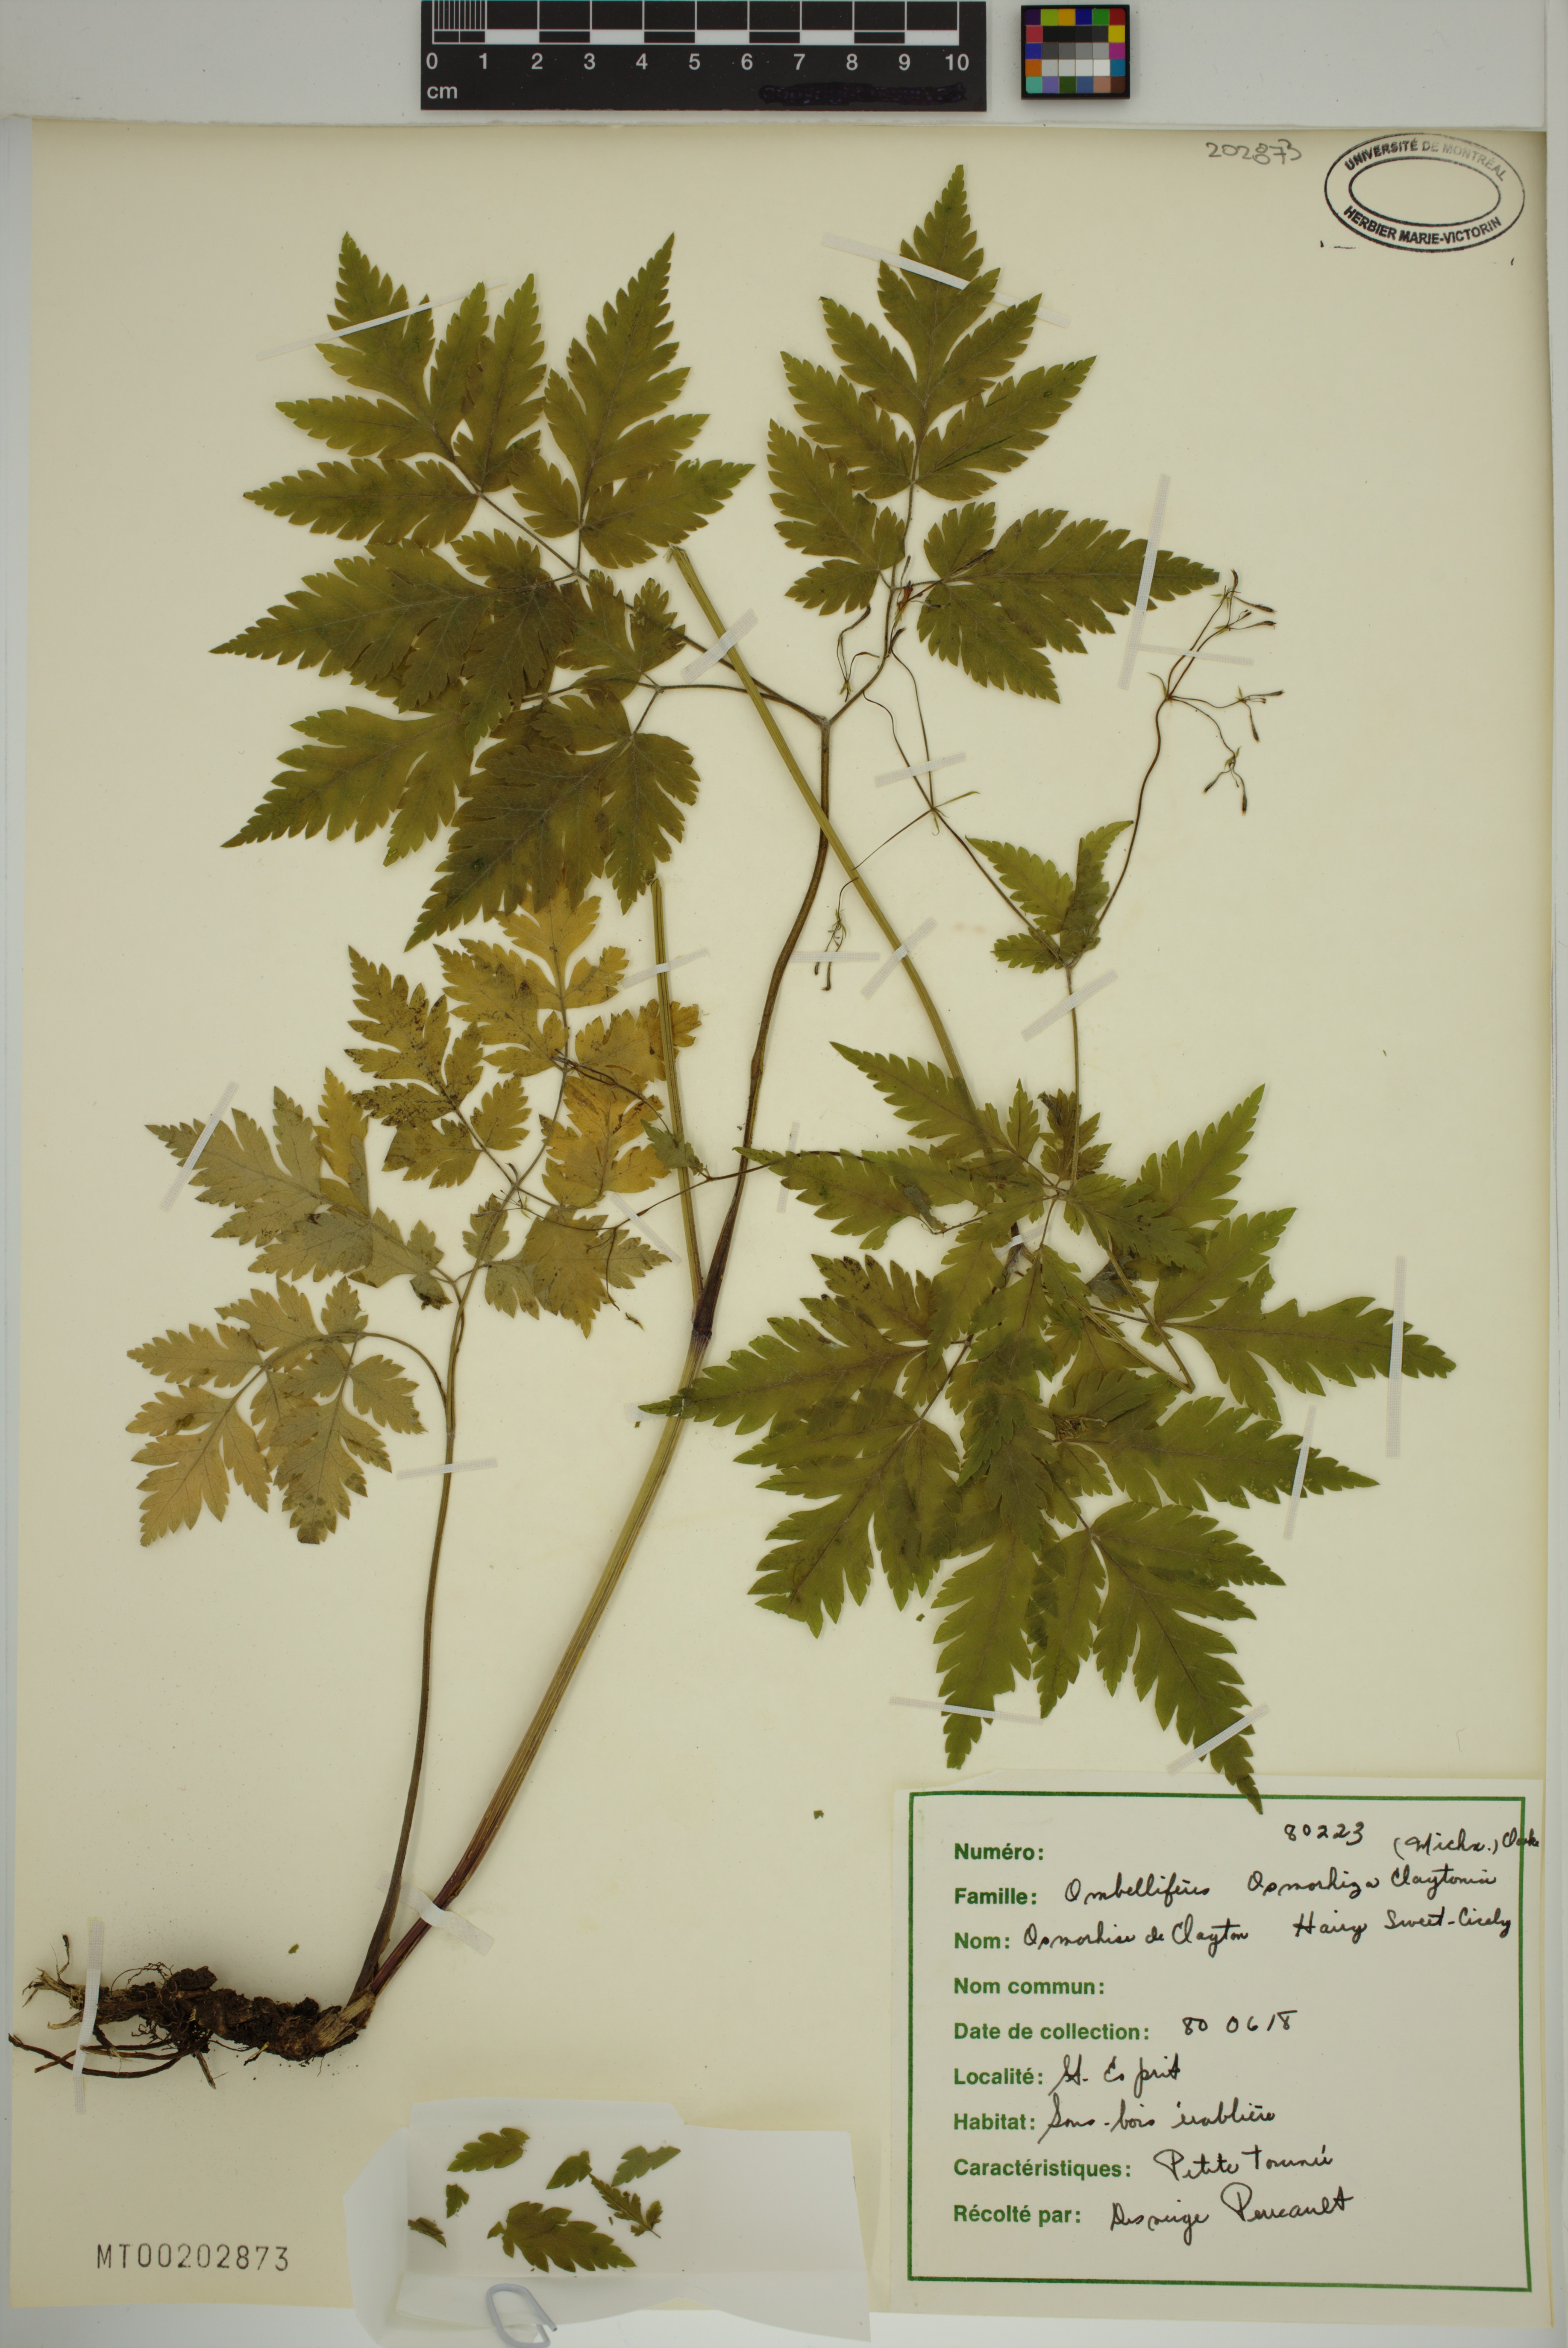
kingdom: Plantae
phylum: Tracheophyta
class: Magnoliopsida
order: Apiales
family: Apiaceae
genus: Osmorhiza
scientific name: Osmorhiza claytonii
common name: Hairy sweet cicely
